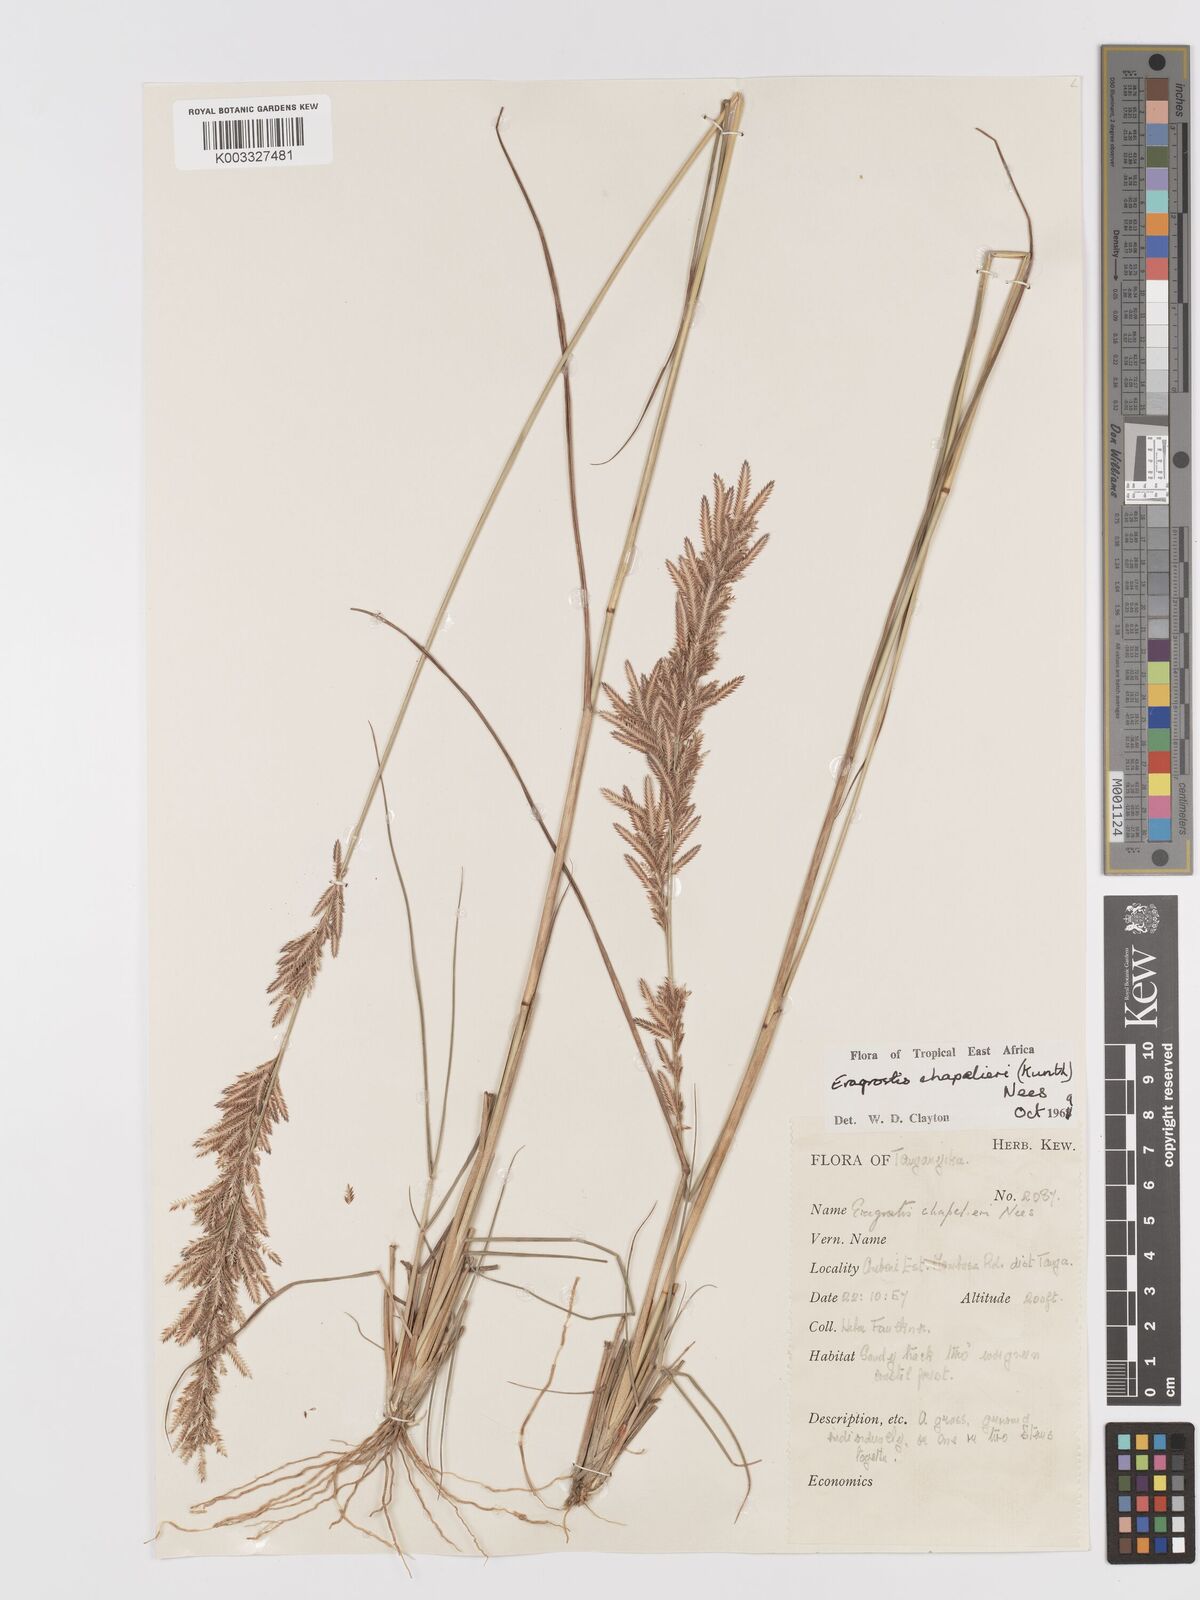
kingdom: Plantae
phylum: Tracheophyta
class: Liliopsida
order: Poales
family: Poaceae
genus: Eragrostis
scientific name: Eragrostis chapelieri
